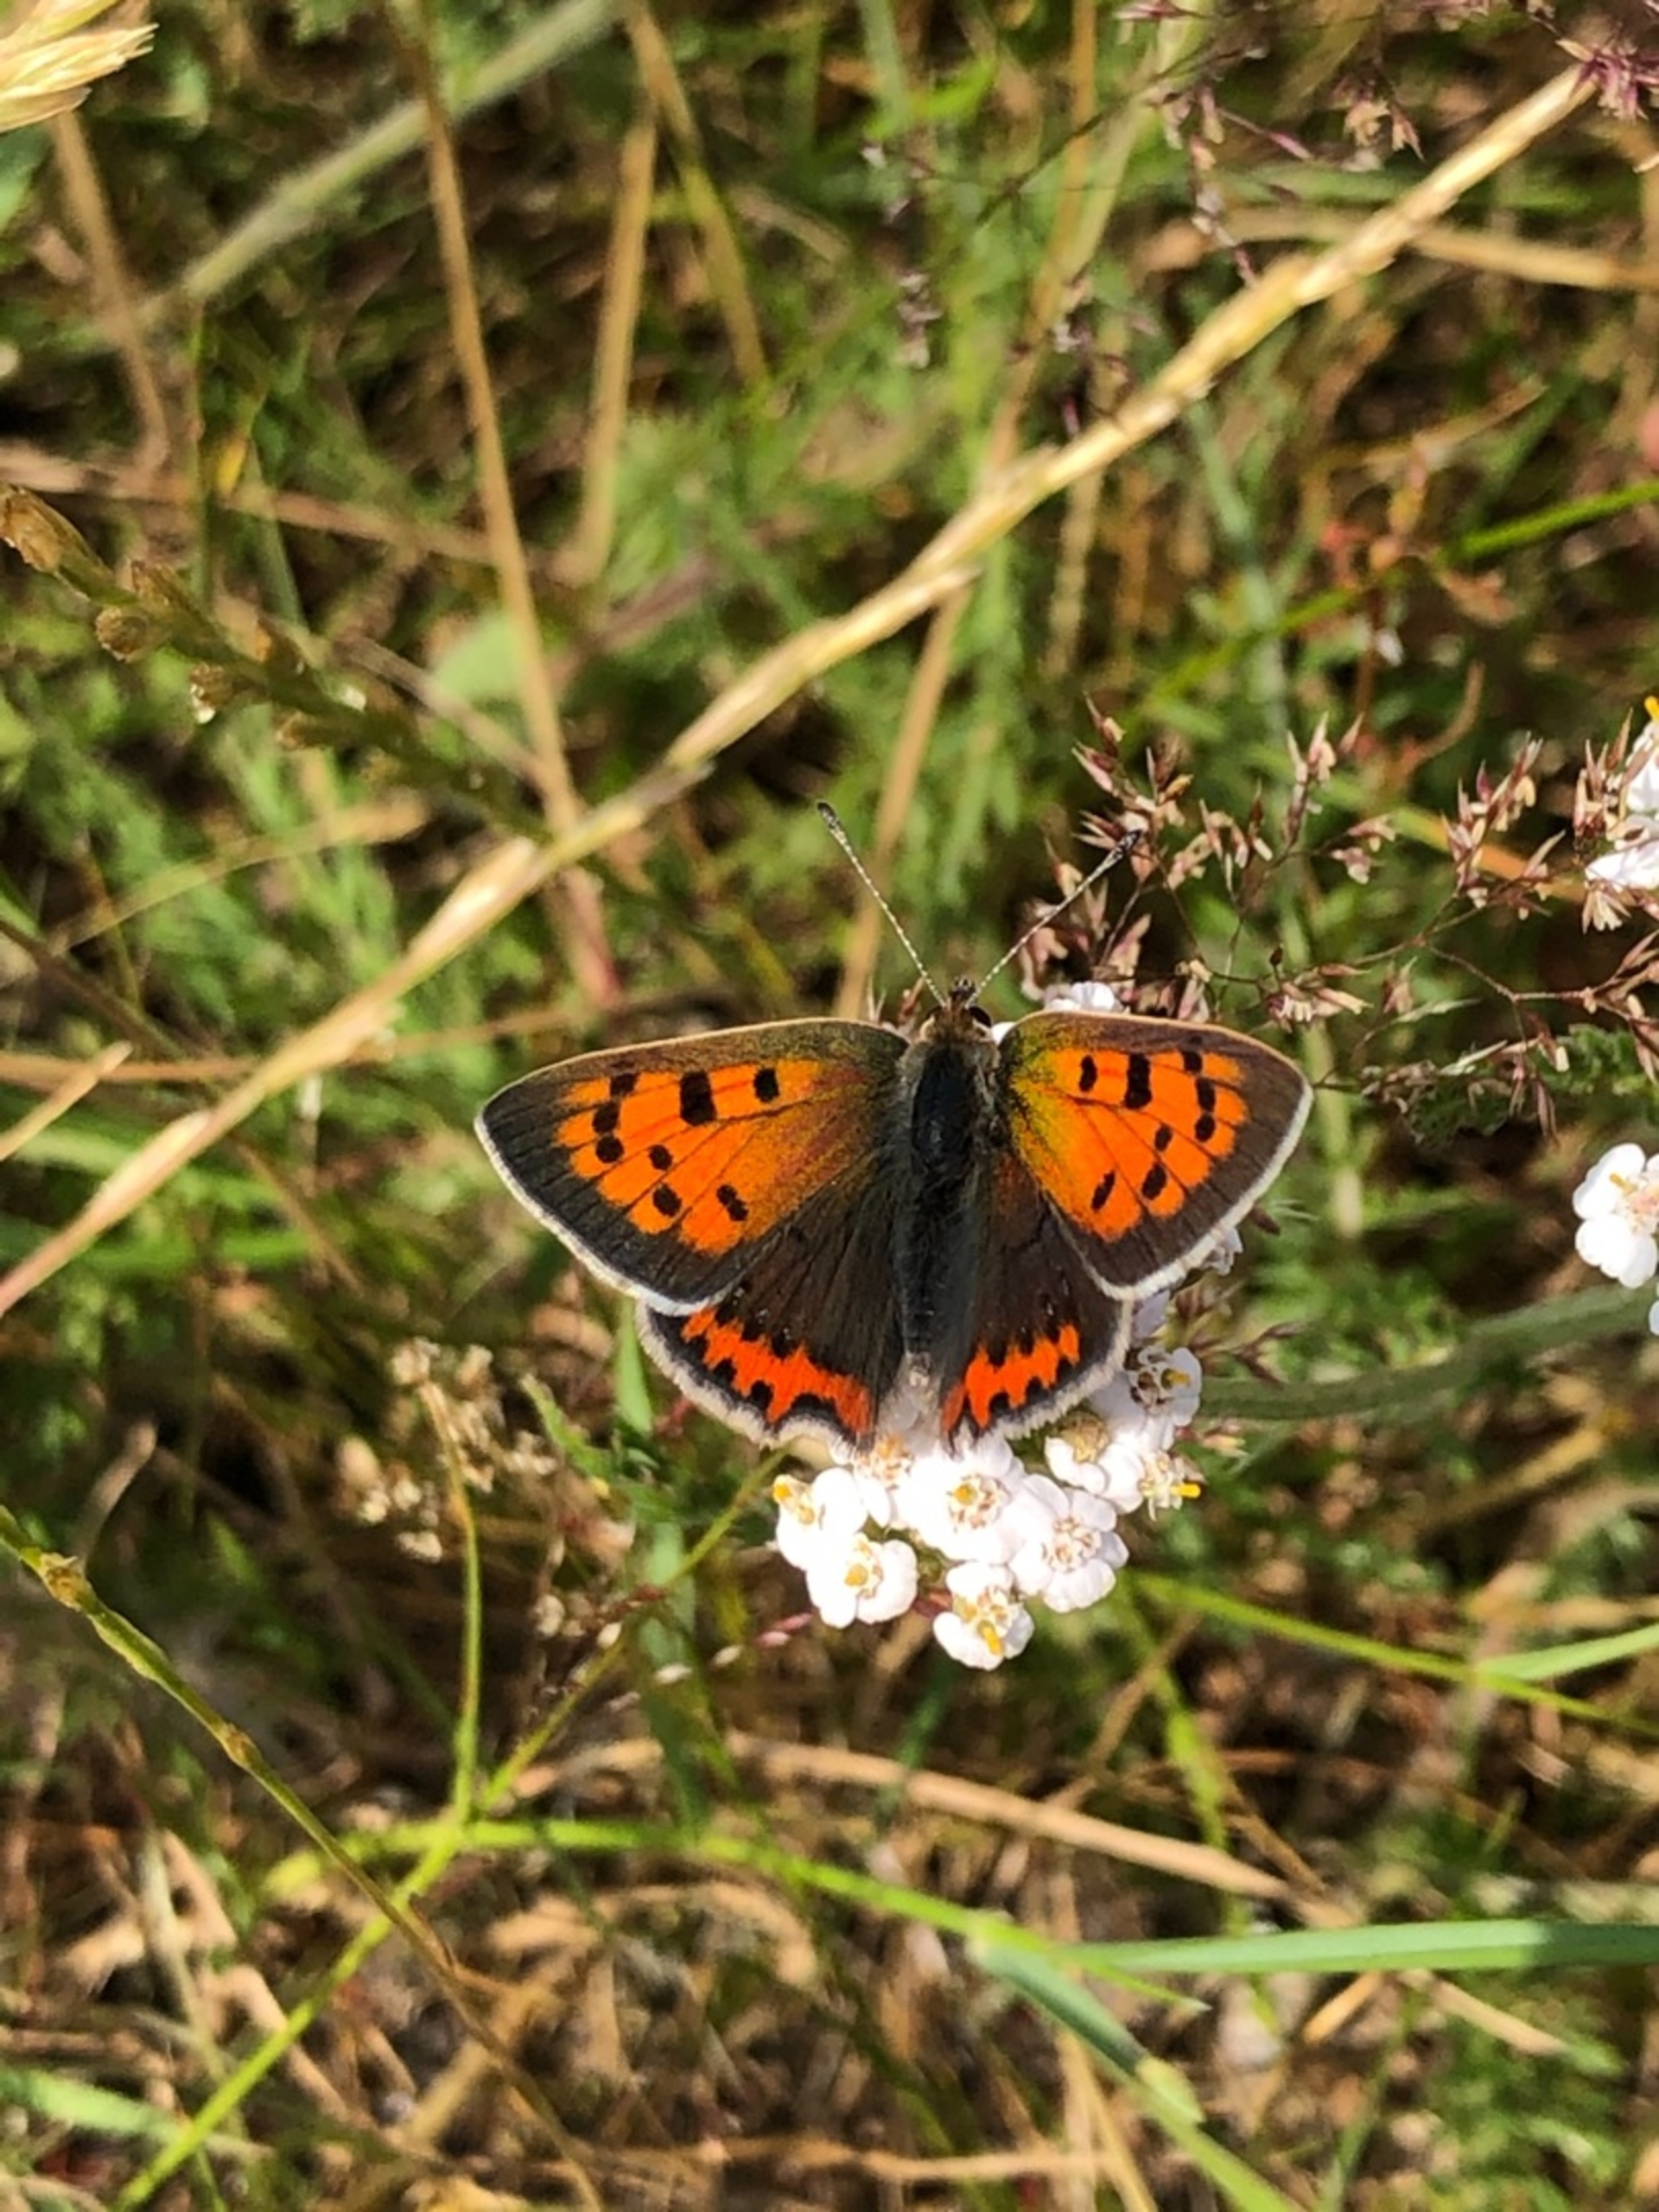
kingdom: Animalia
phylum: Arthropoda
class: Insecta
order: Lepidoptera
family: Lycaenidae
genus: Lycaena
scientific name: Lycaena phlaeas
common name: Lille ildfugl
